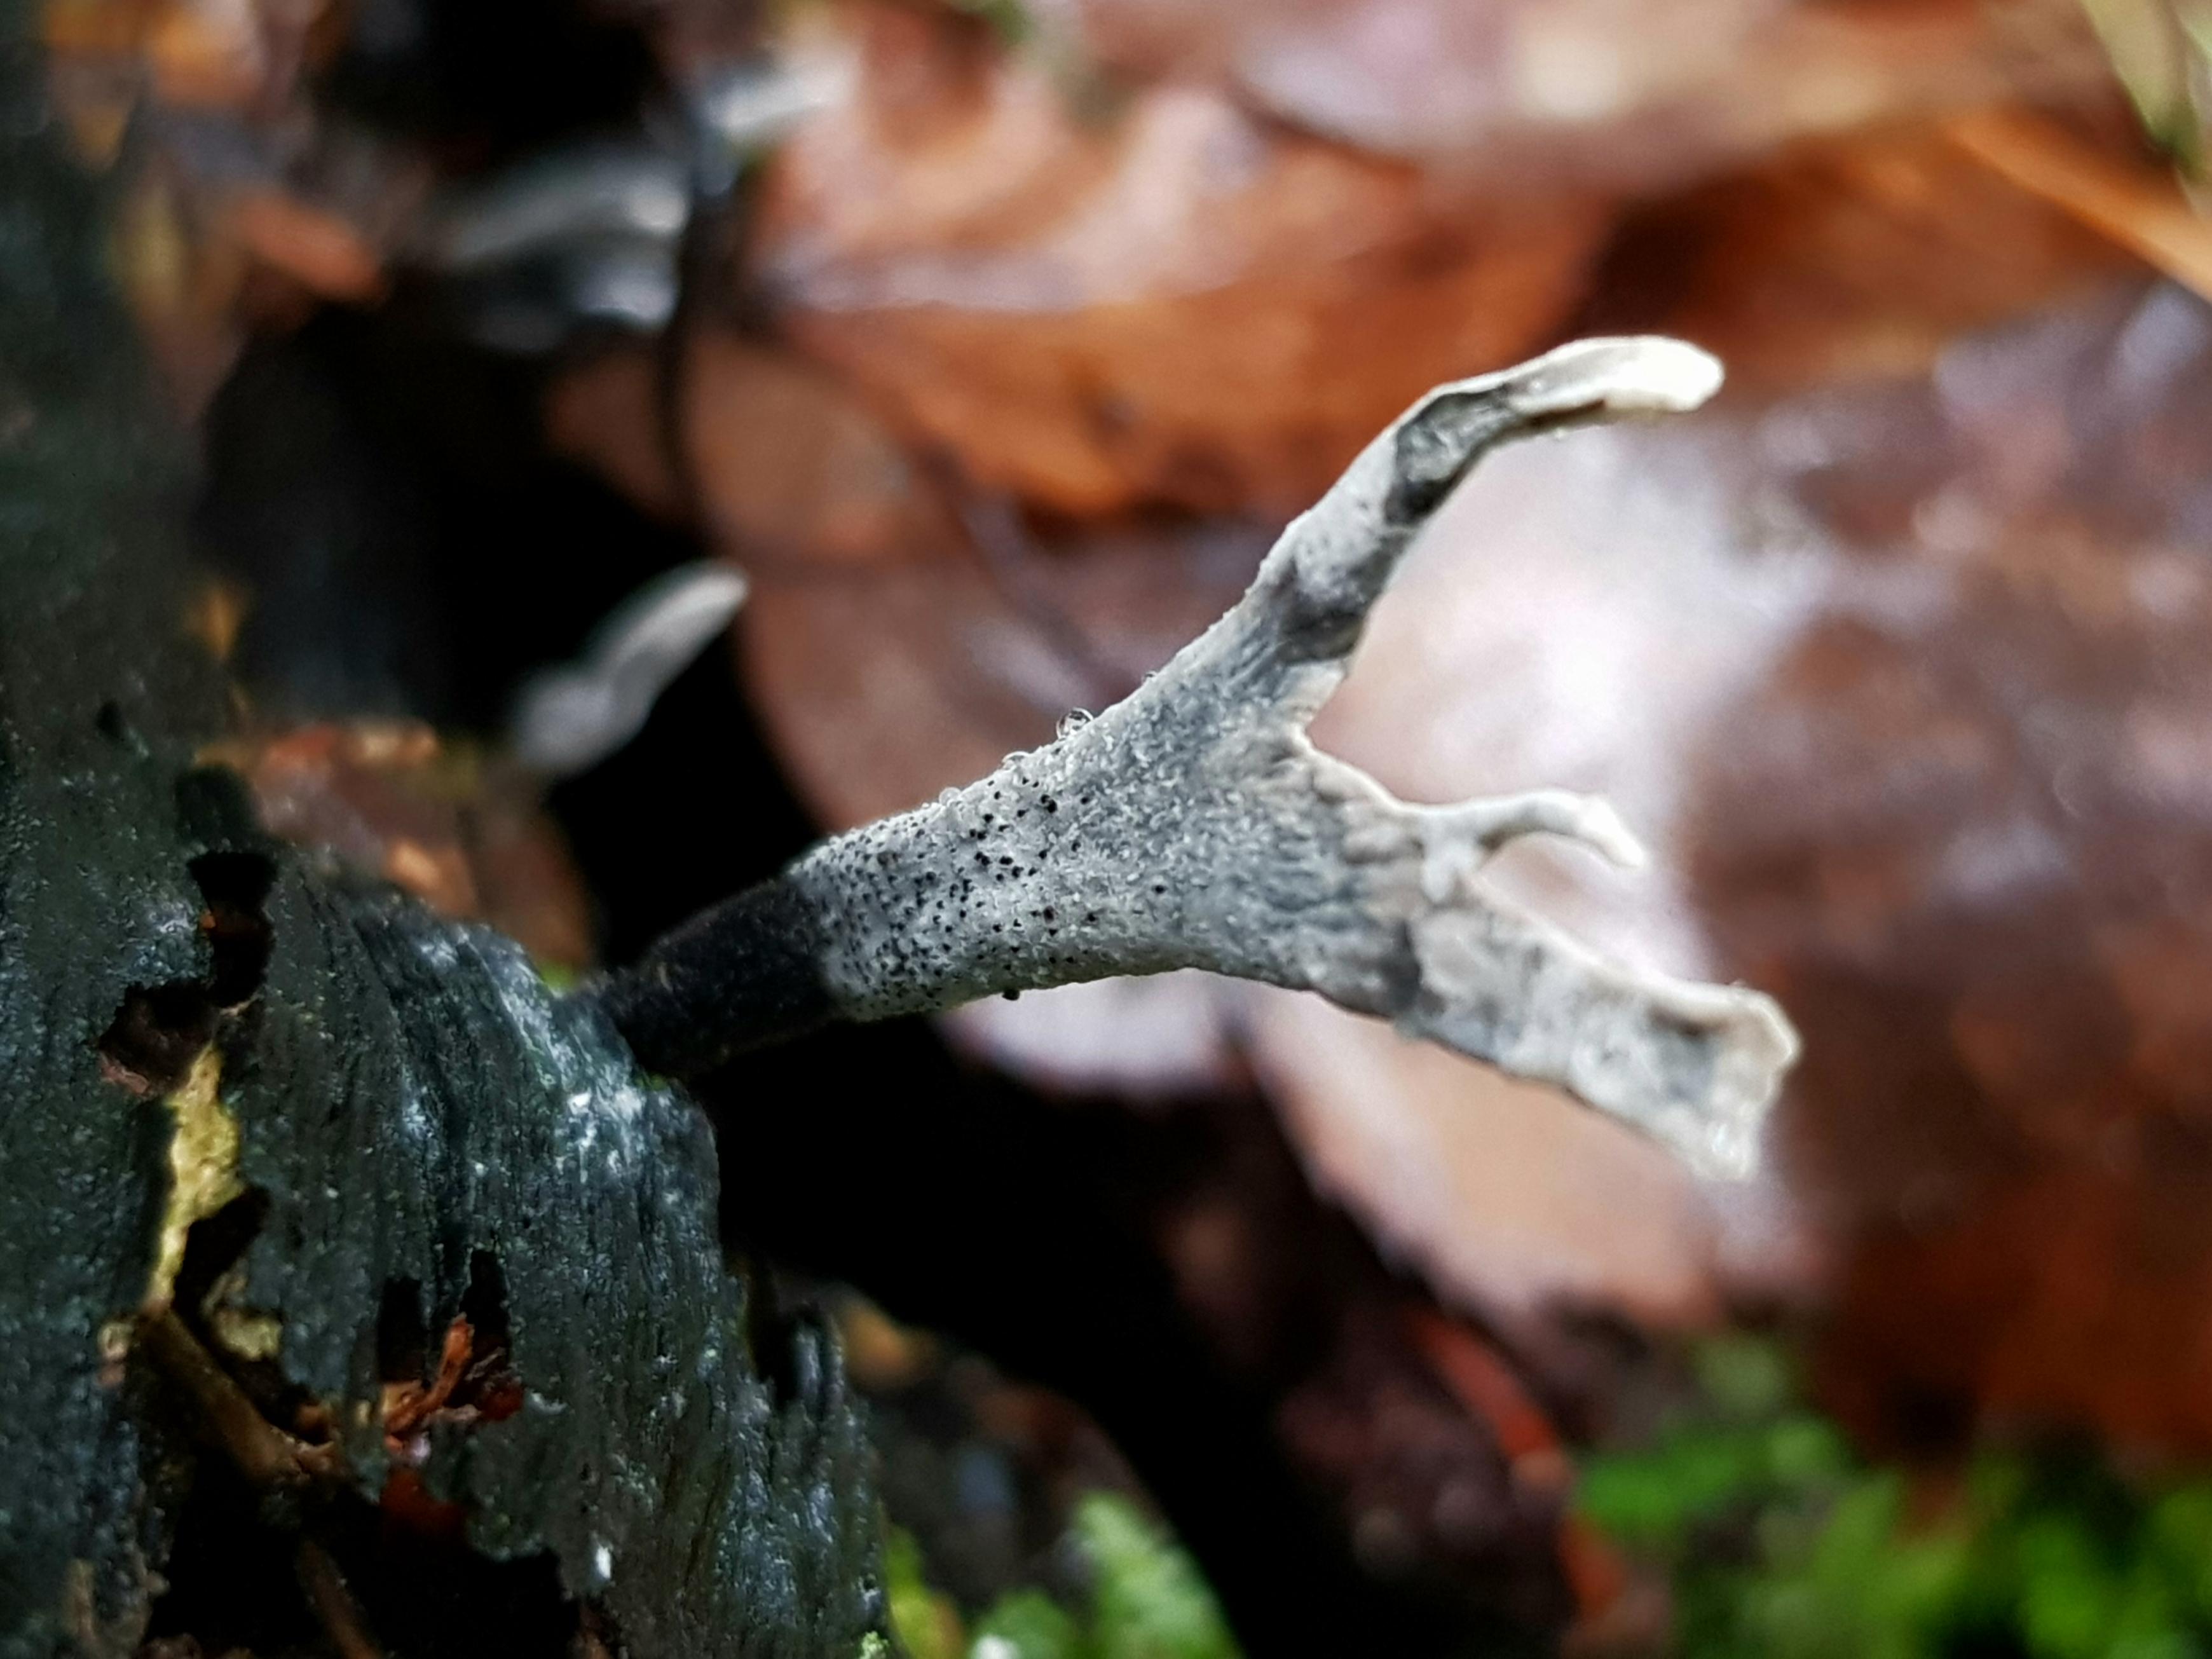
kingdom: Fungi
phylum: Ascomycota
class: Sordariomycetes
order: Xylariales
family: Xylariaceae
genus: Xylaria
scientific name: Xylaria hypoxylon
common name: grenet stødsvamp
